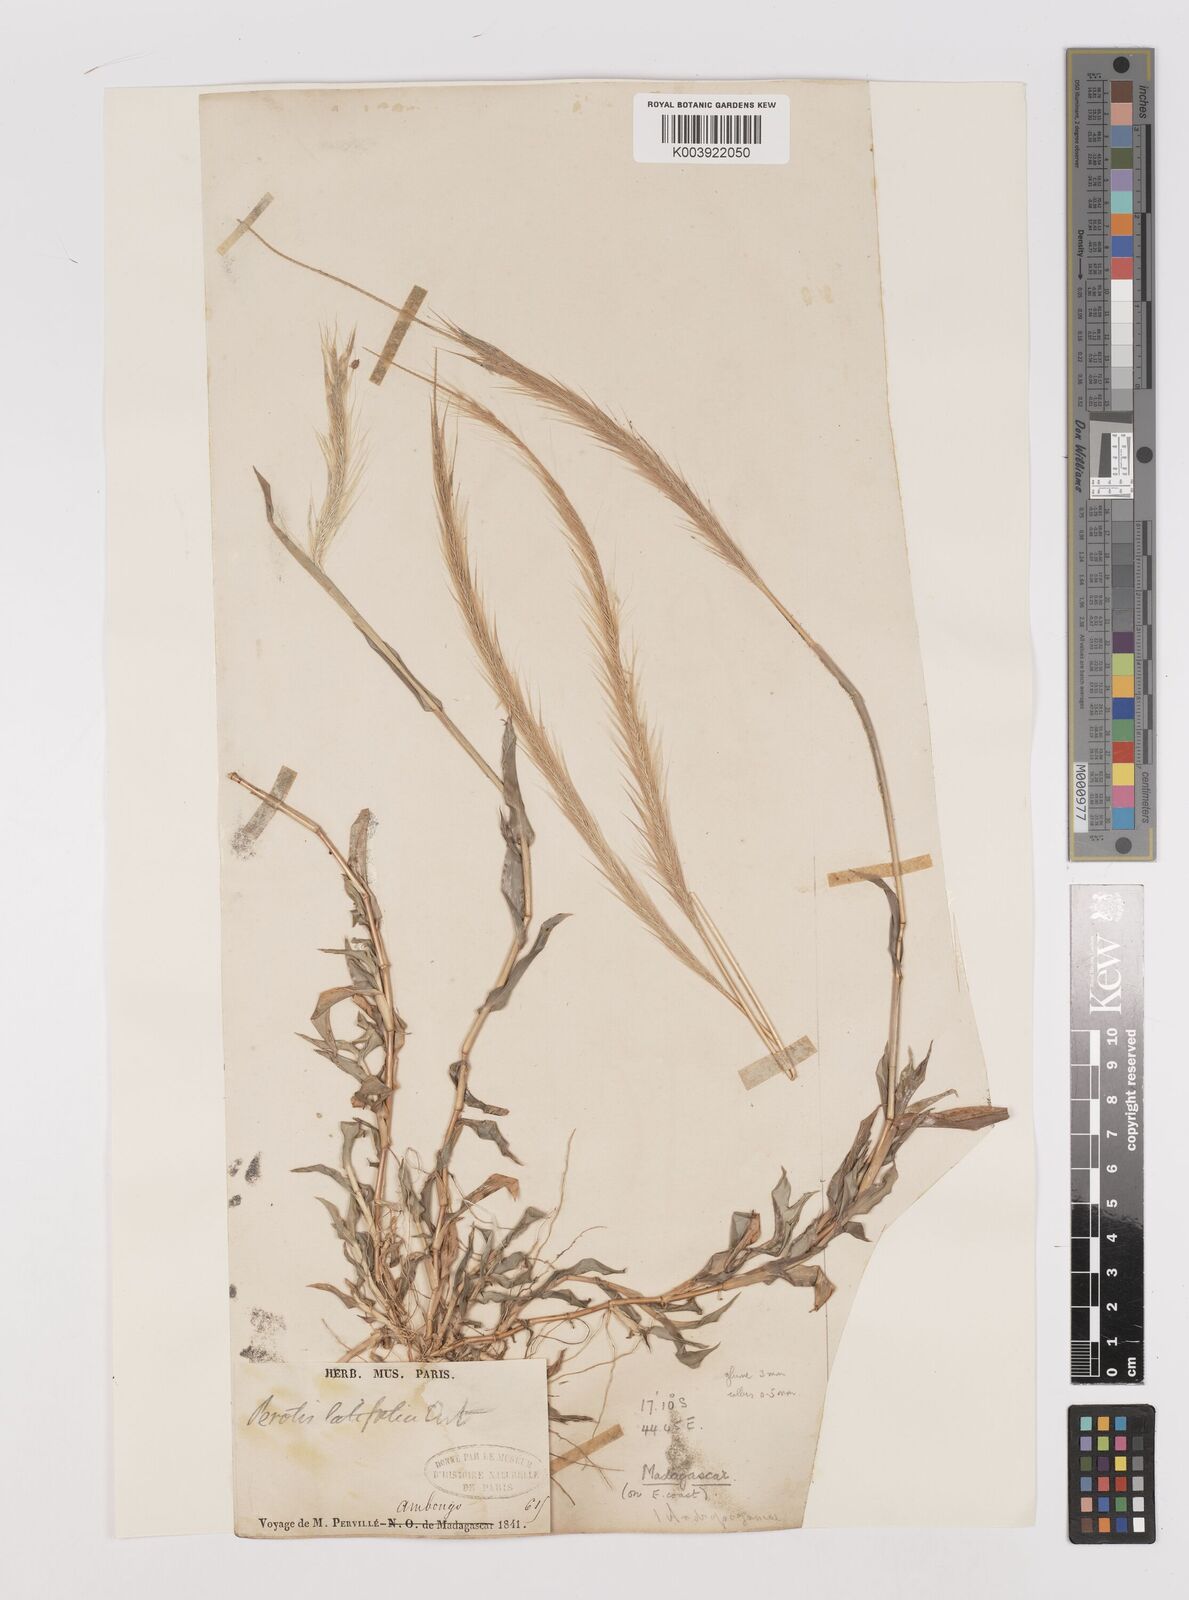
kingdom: Plantae
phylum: Tracheophyta
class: Liliopsida
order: Poales
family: Poaceae
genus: Perotis
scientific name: Perotis
